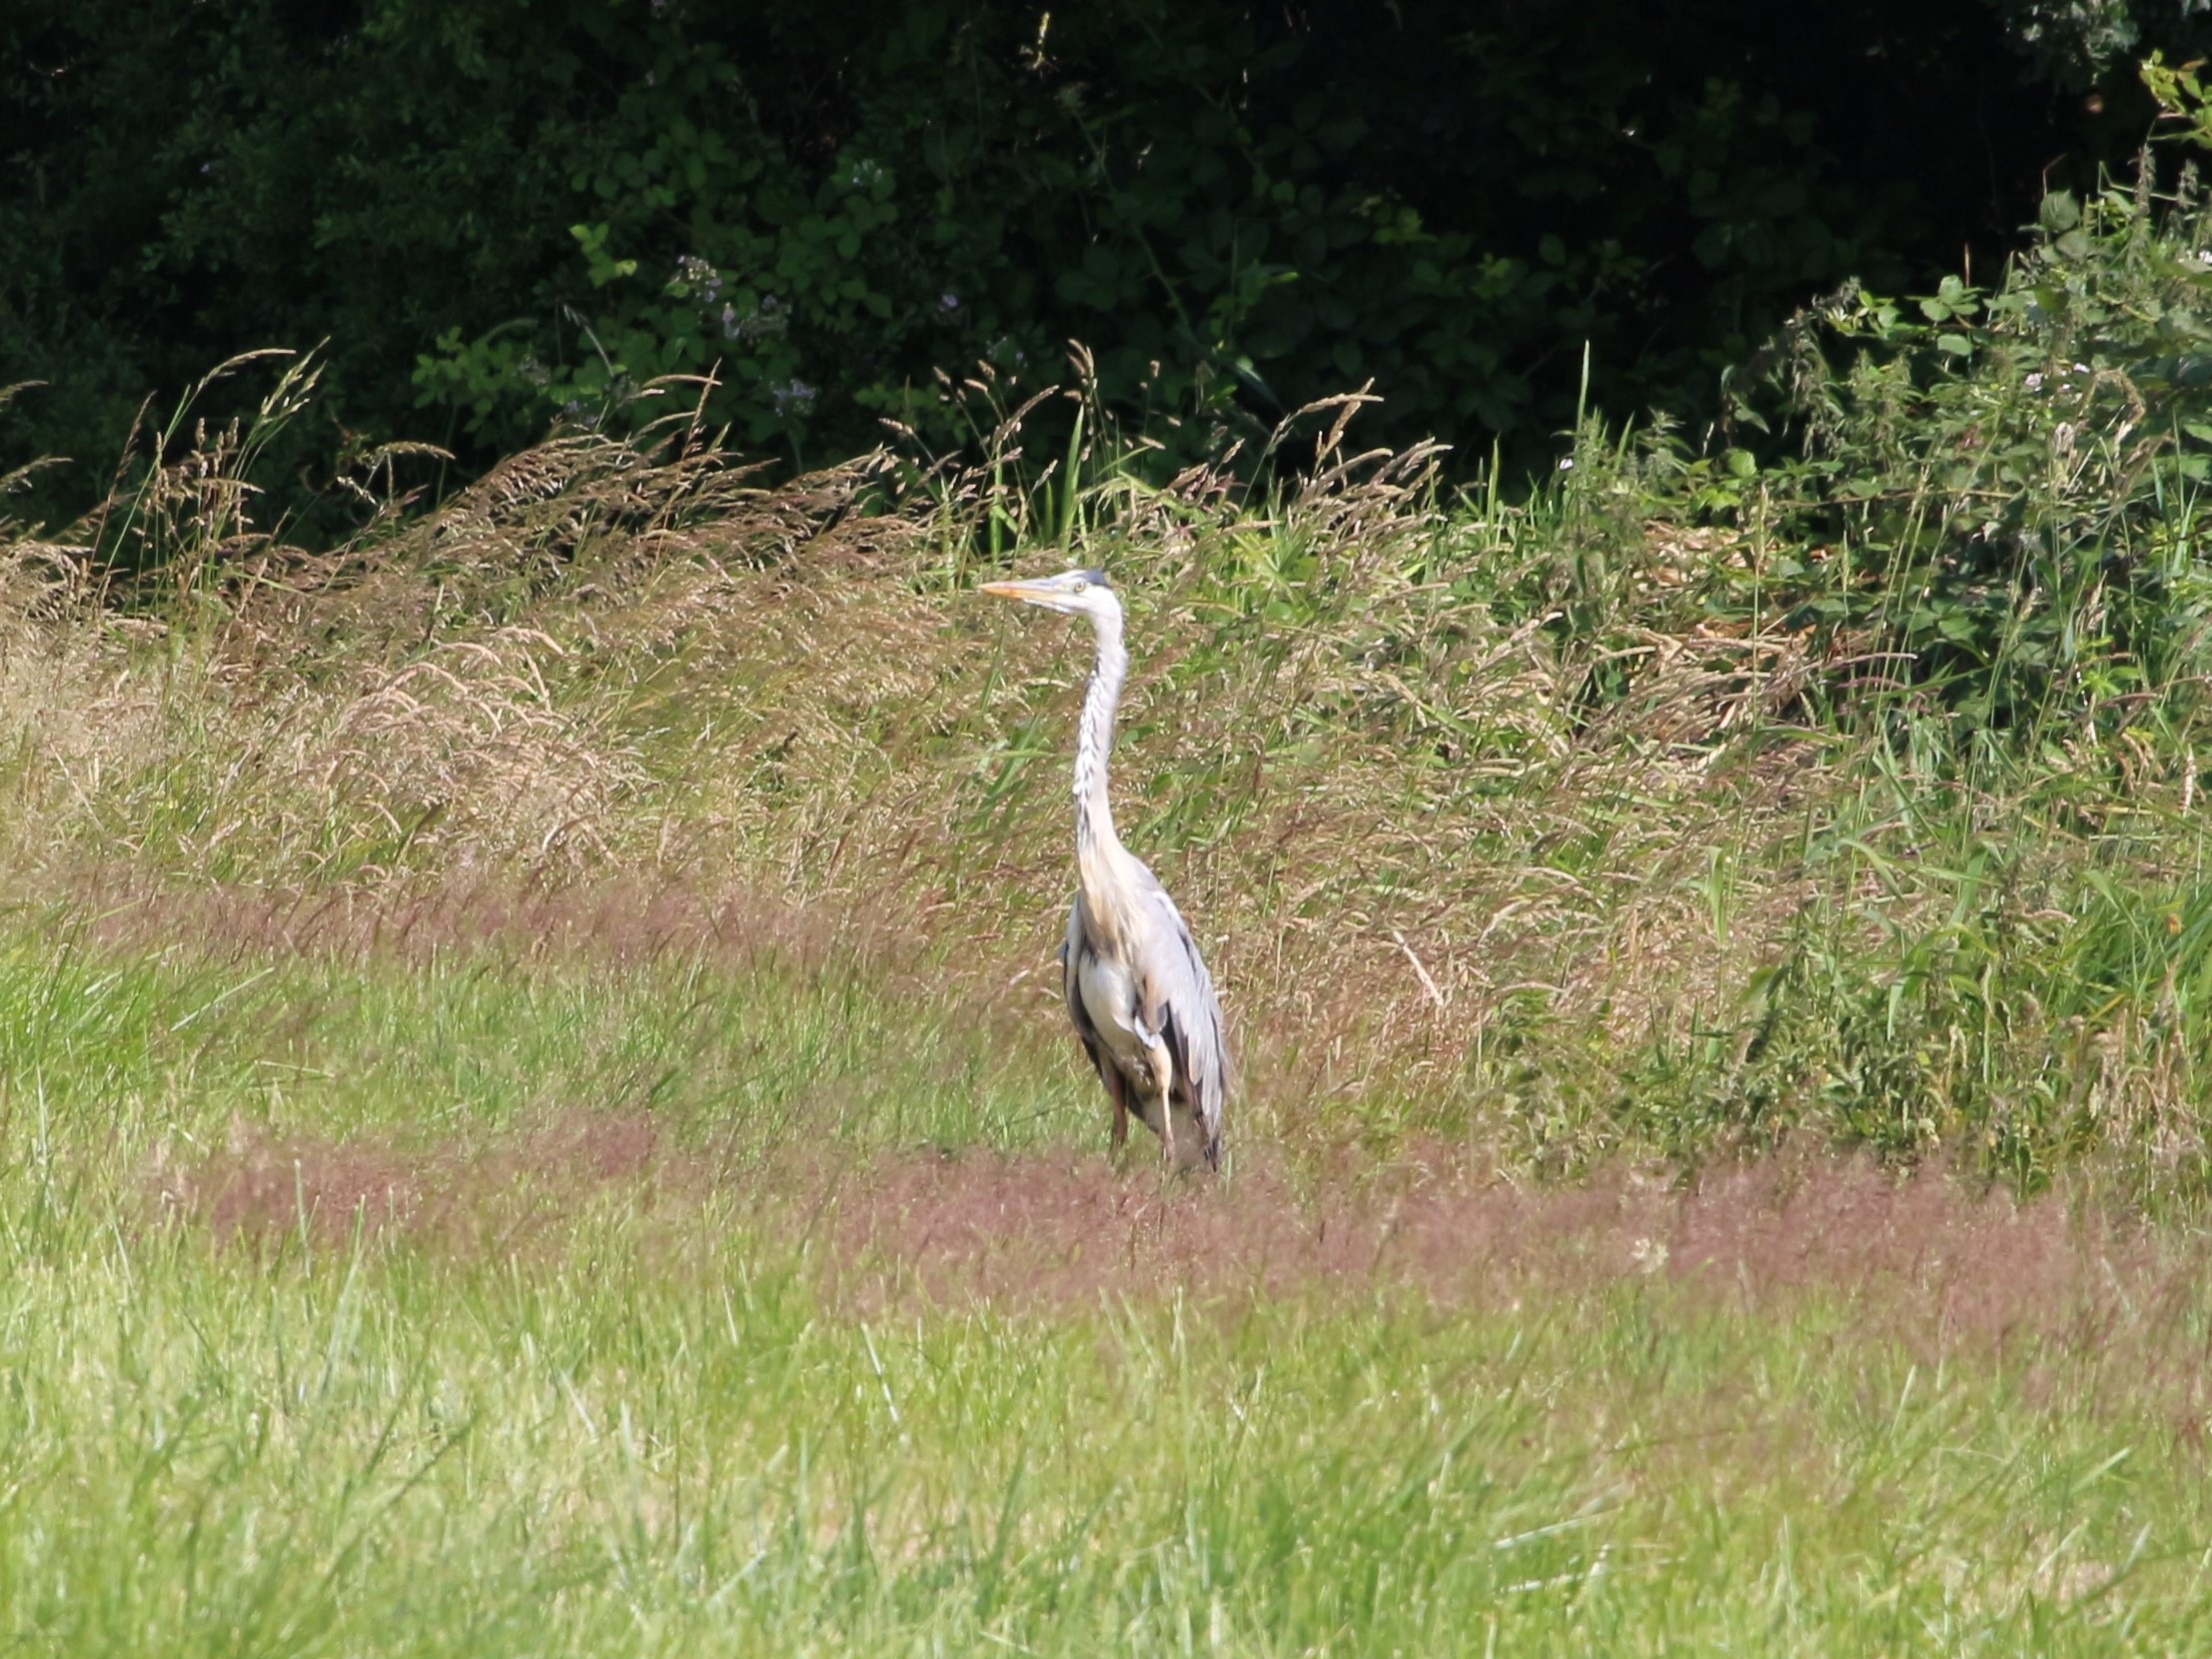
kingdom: Animalia
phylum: Chordata
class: Aves
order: Pelecaniformes
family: Ardeidae
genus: Ardea
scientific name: Ardea cinerea
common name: Fiskehejre
